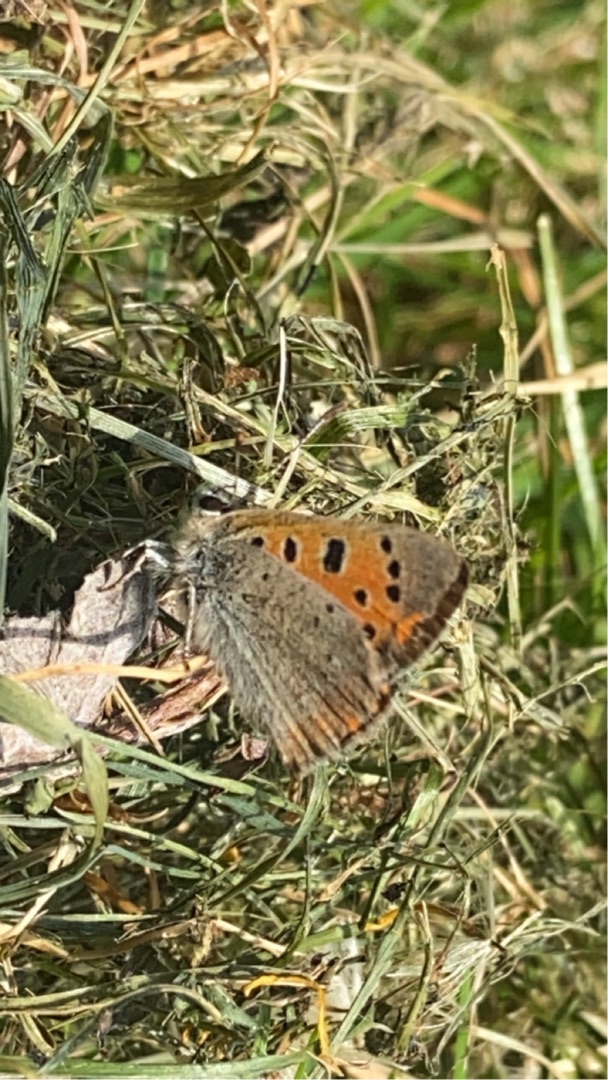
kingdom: Animalia
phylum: Arthropoda
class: Insecta
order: Lepidoptera
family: Lycaenidae
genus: Lycaena
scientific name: Lycaena phlaeas
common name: Lille ildfugl
